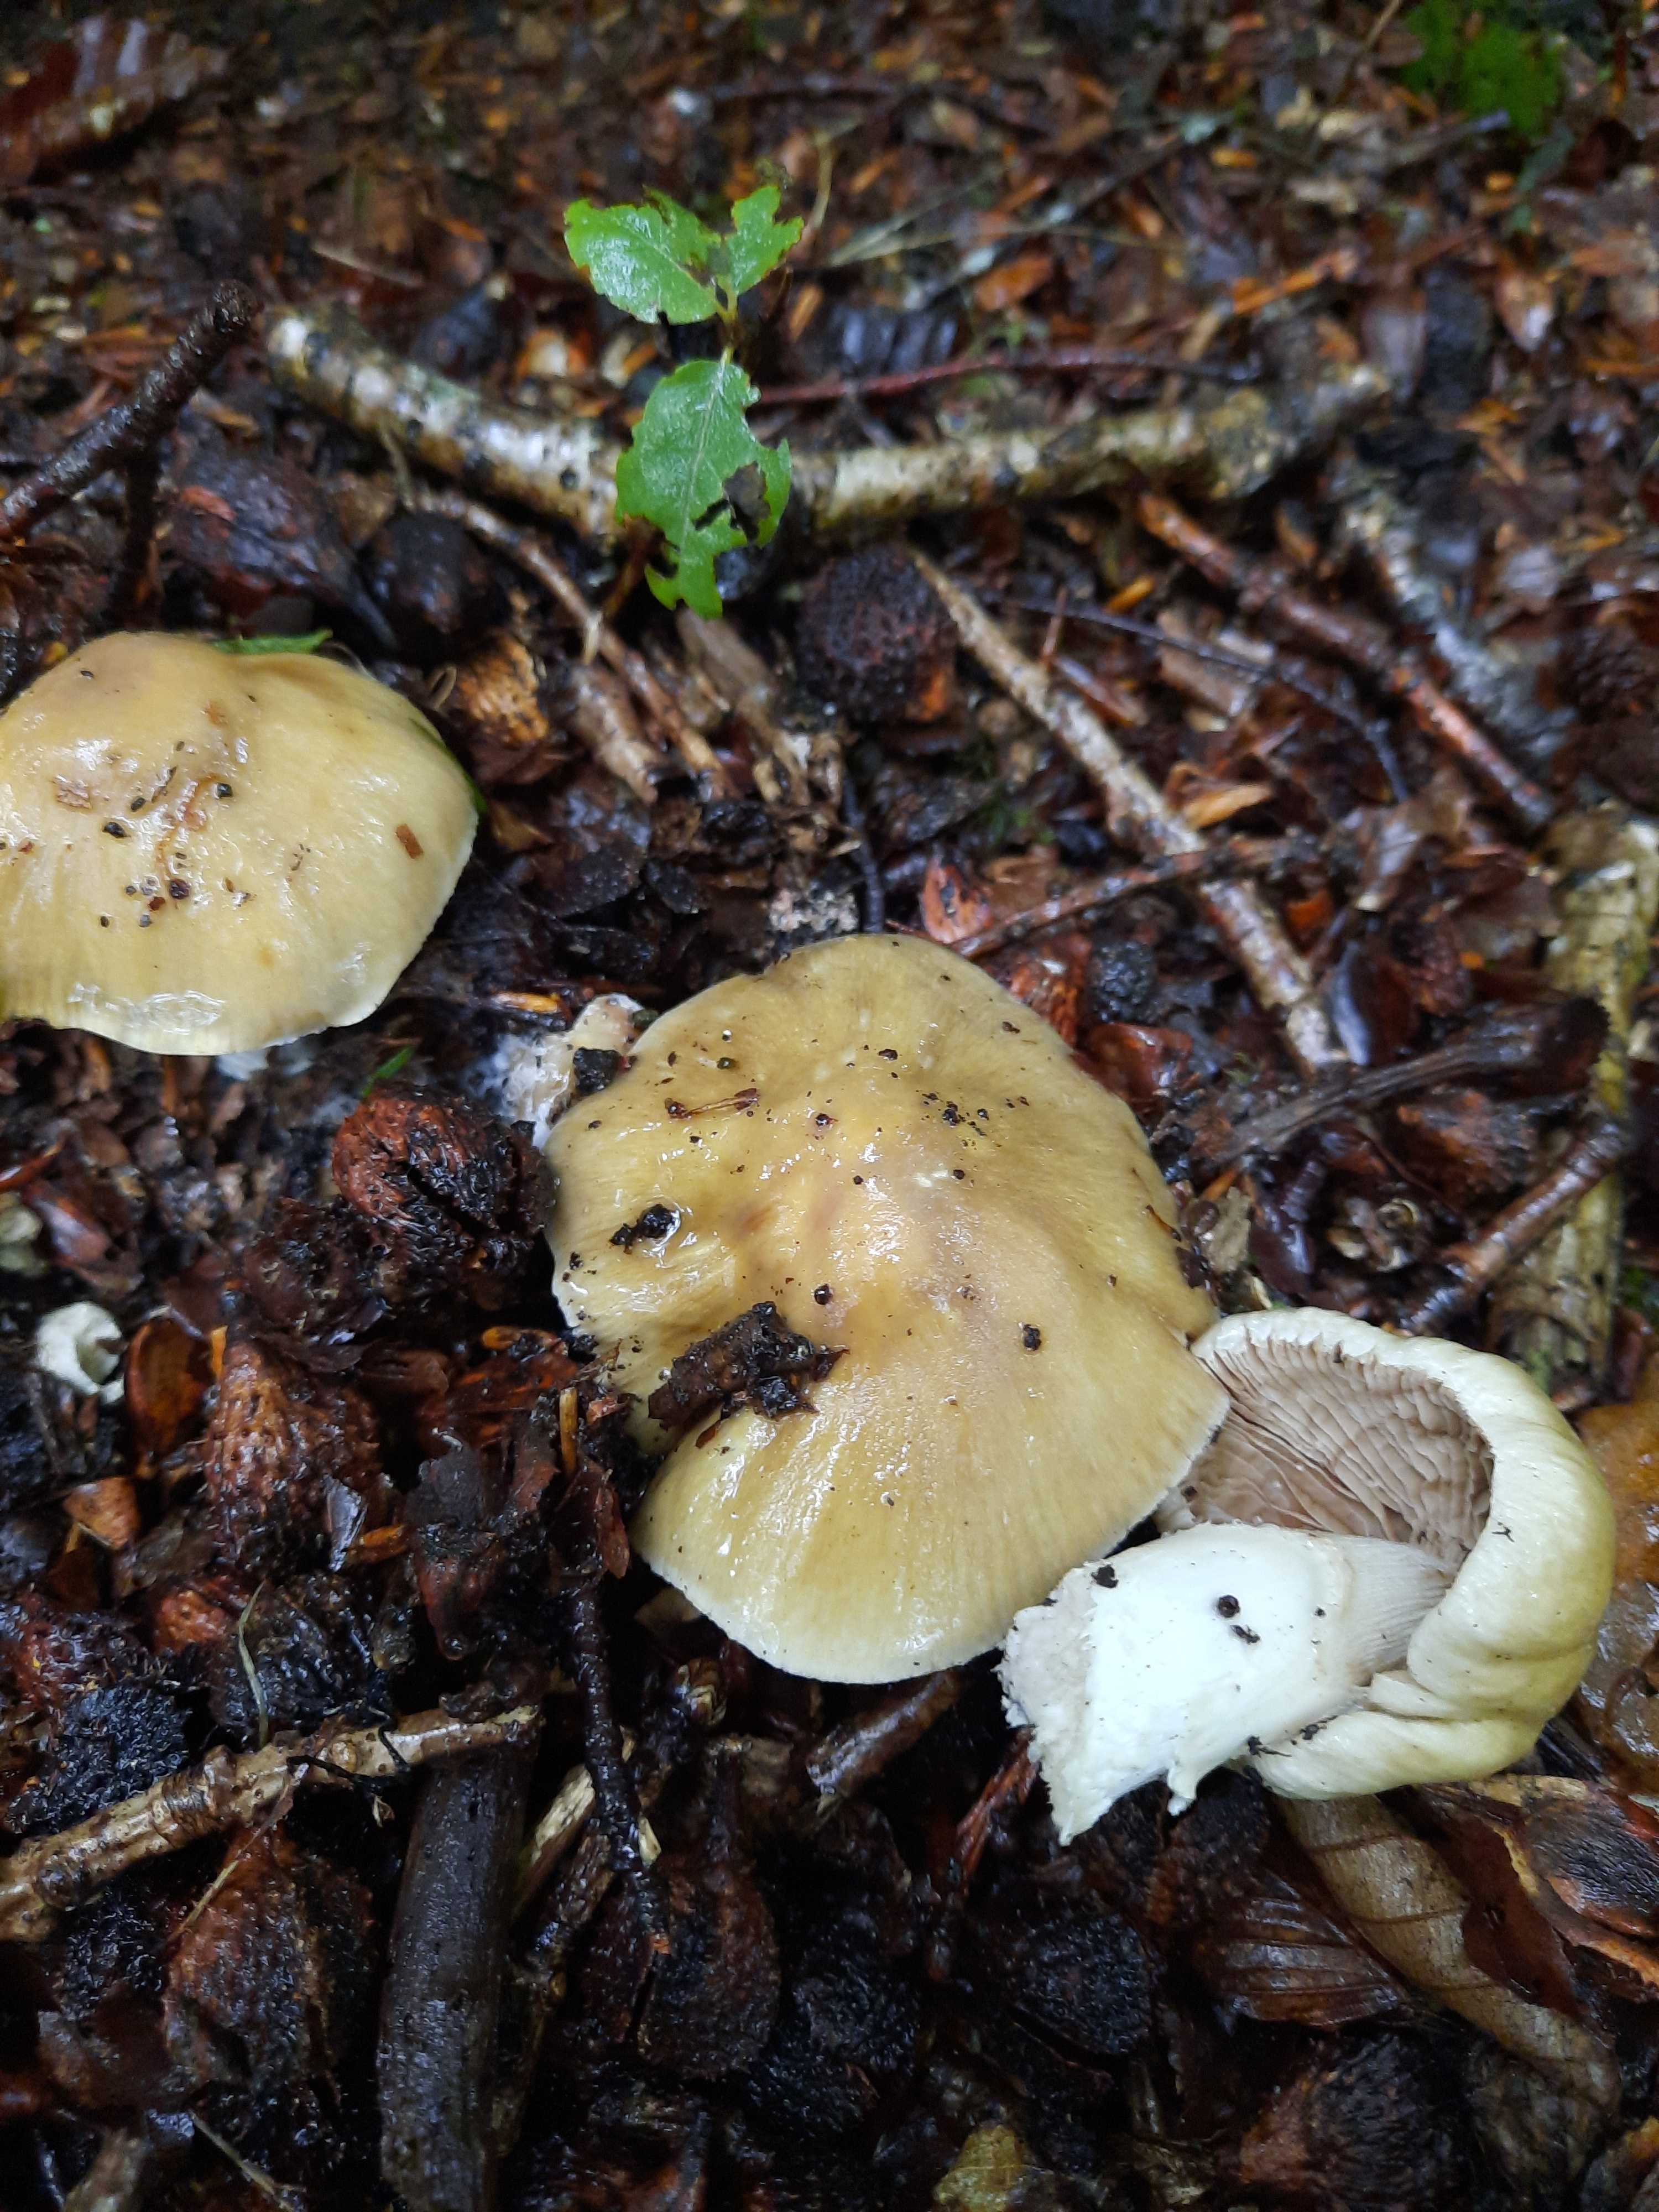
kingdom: Fungi
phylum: Basidiomycota
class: Agaricomycetes
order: Agaricales
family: Cortinariaceae
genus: Cortinarius
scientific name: Cortinarius elatior
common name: høj slørhat
